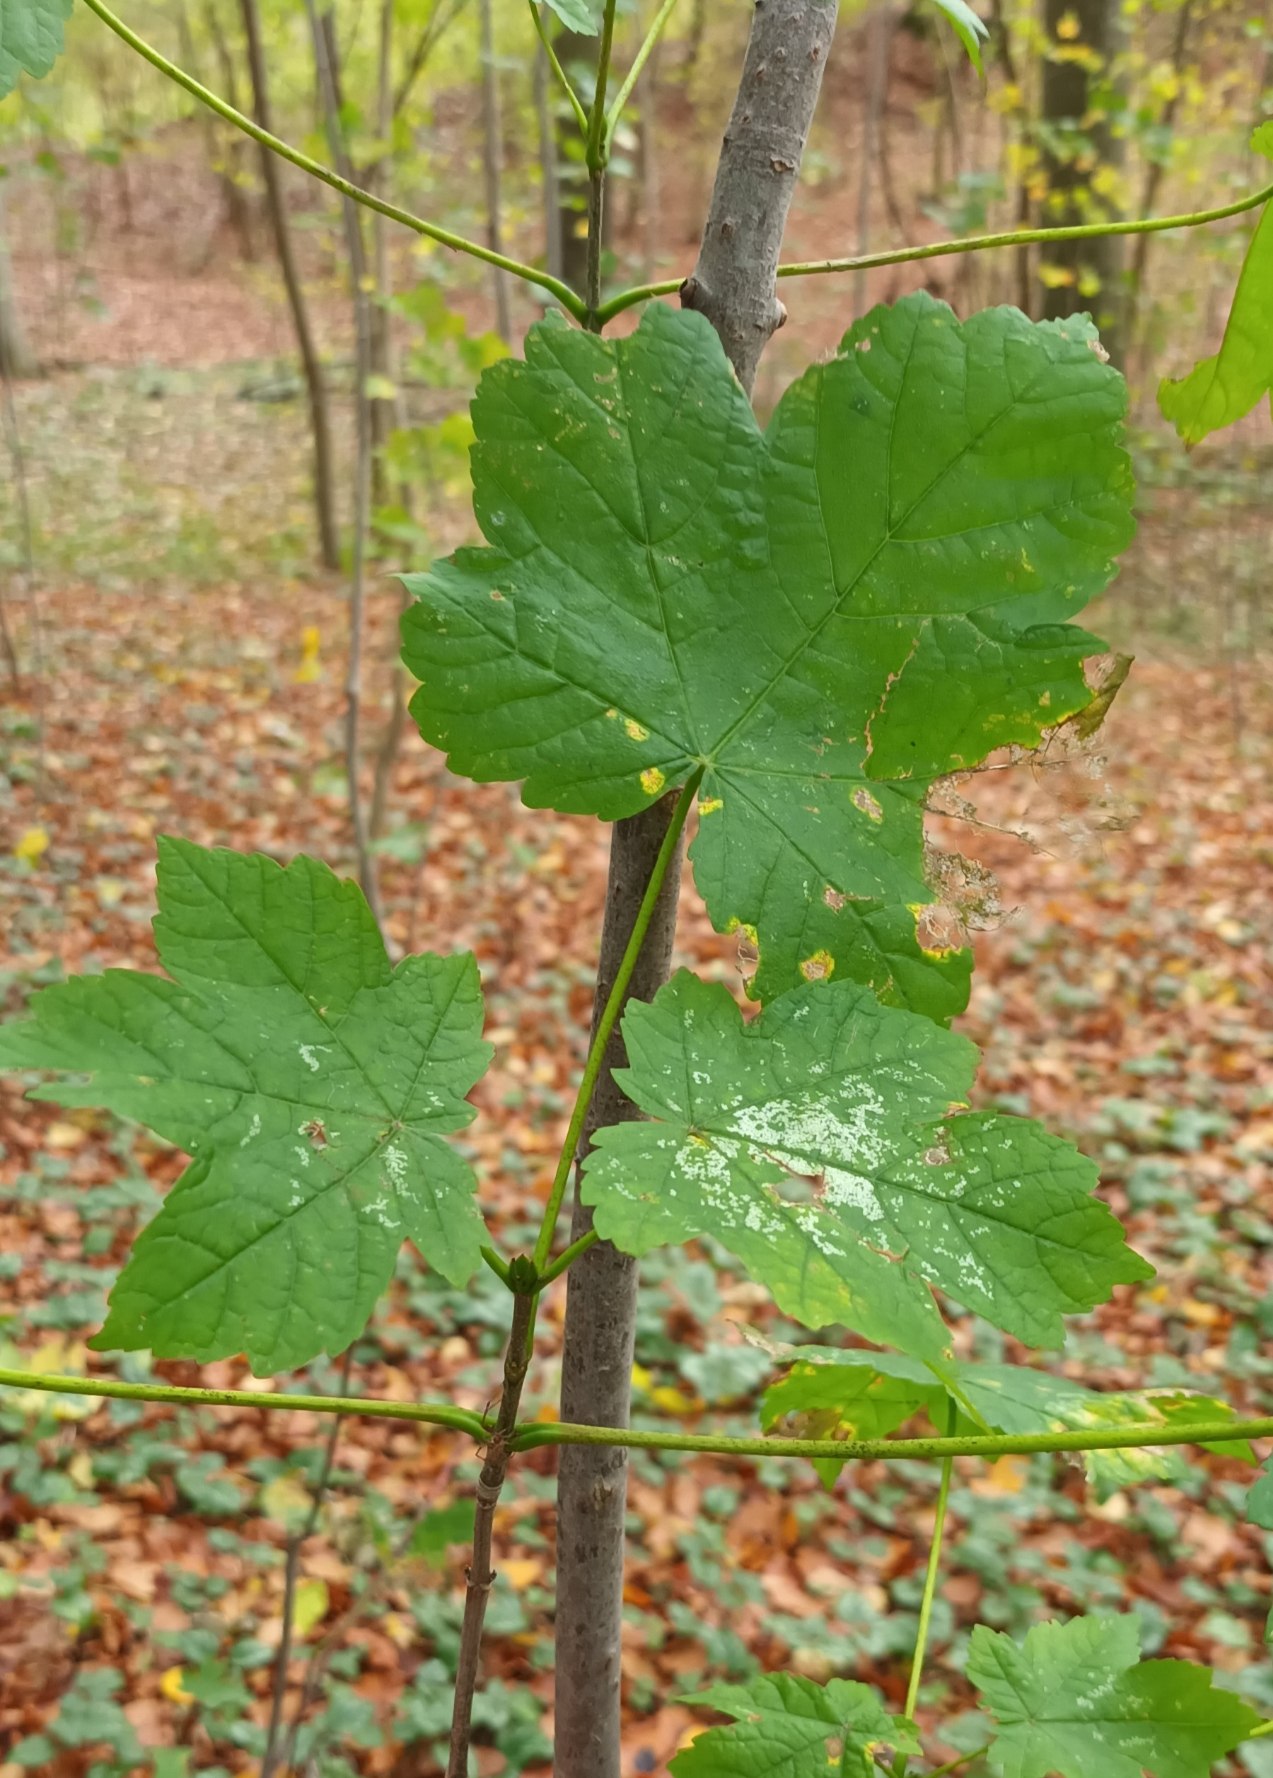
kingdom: Plantae
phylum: Tracheophyta
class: Magnoliopsida
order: Sapindales
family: Sapindaceae
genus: Acer
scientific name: Acer pseudoplatanus
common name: Ahorn
